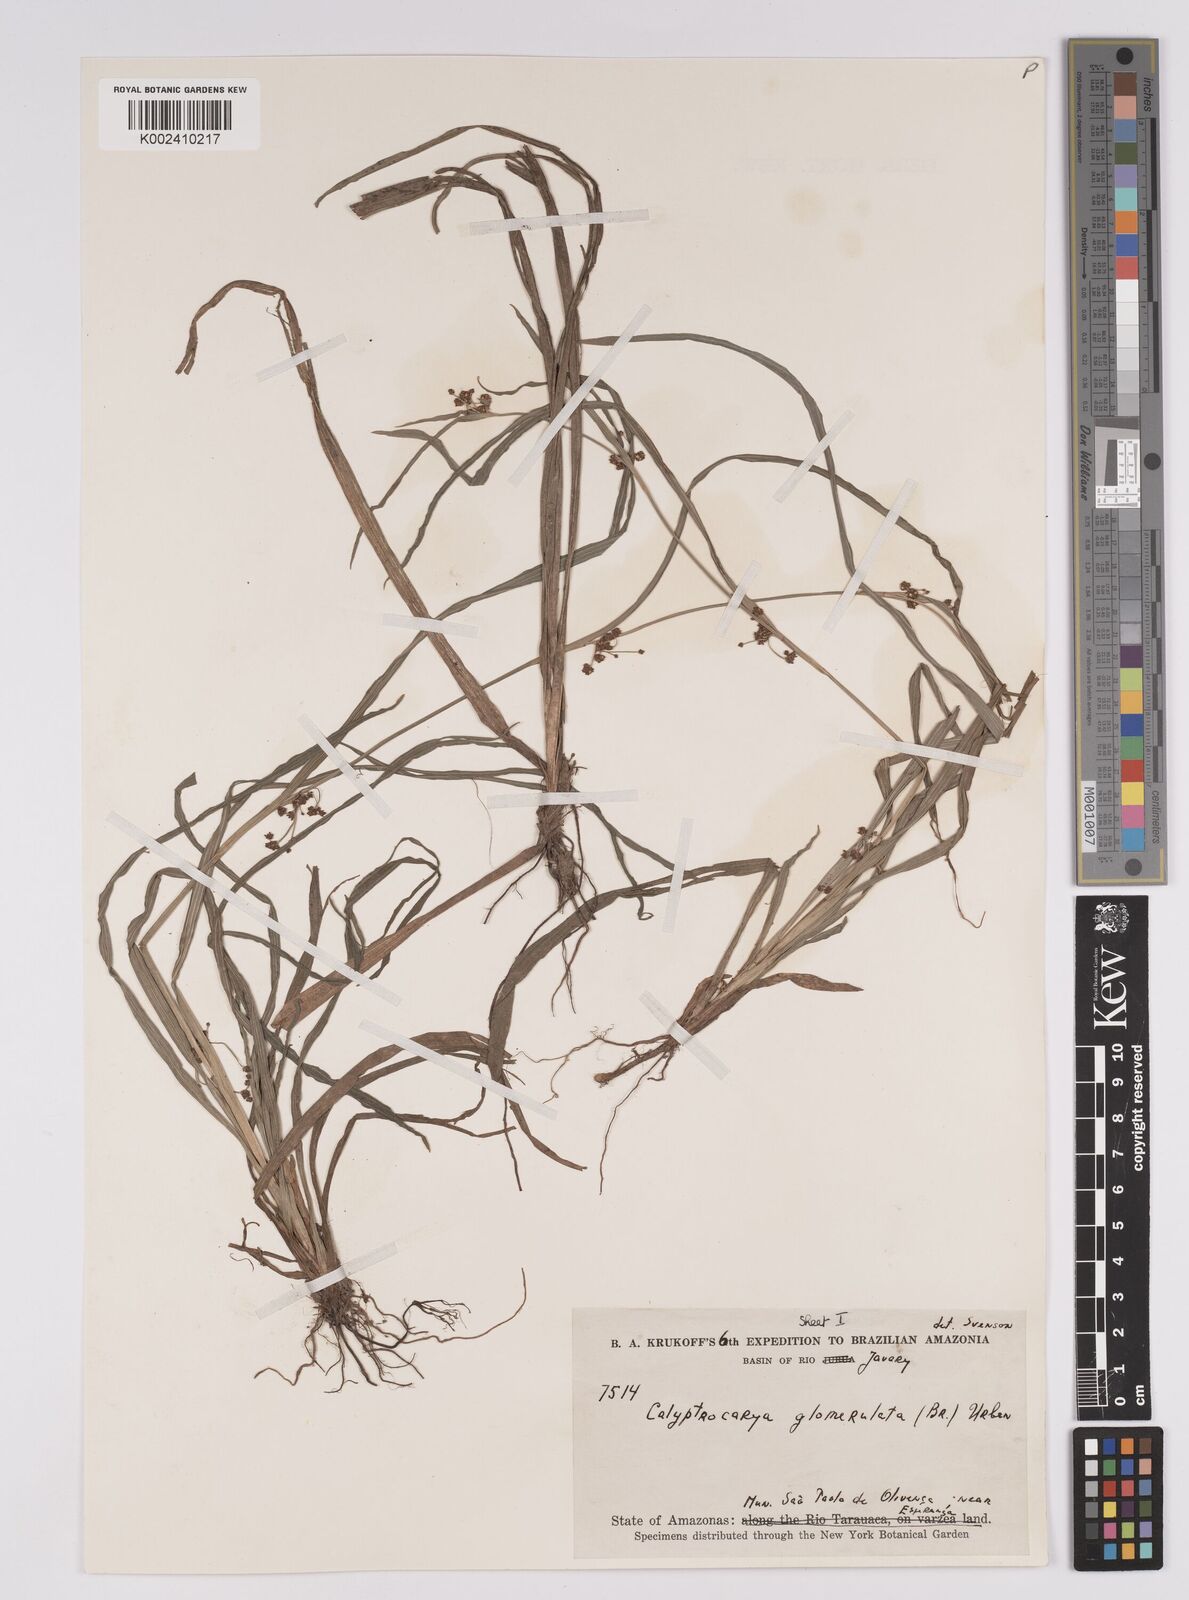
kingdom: Plantae
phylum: Tracheophyta
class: Liliopsida
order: Poales
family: Cyperaceae
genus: Calyptrocarya
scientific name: Calyptrocarya glomerulata
